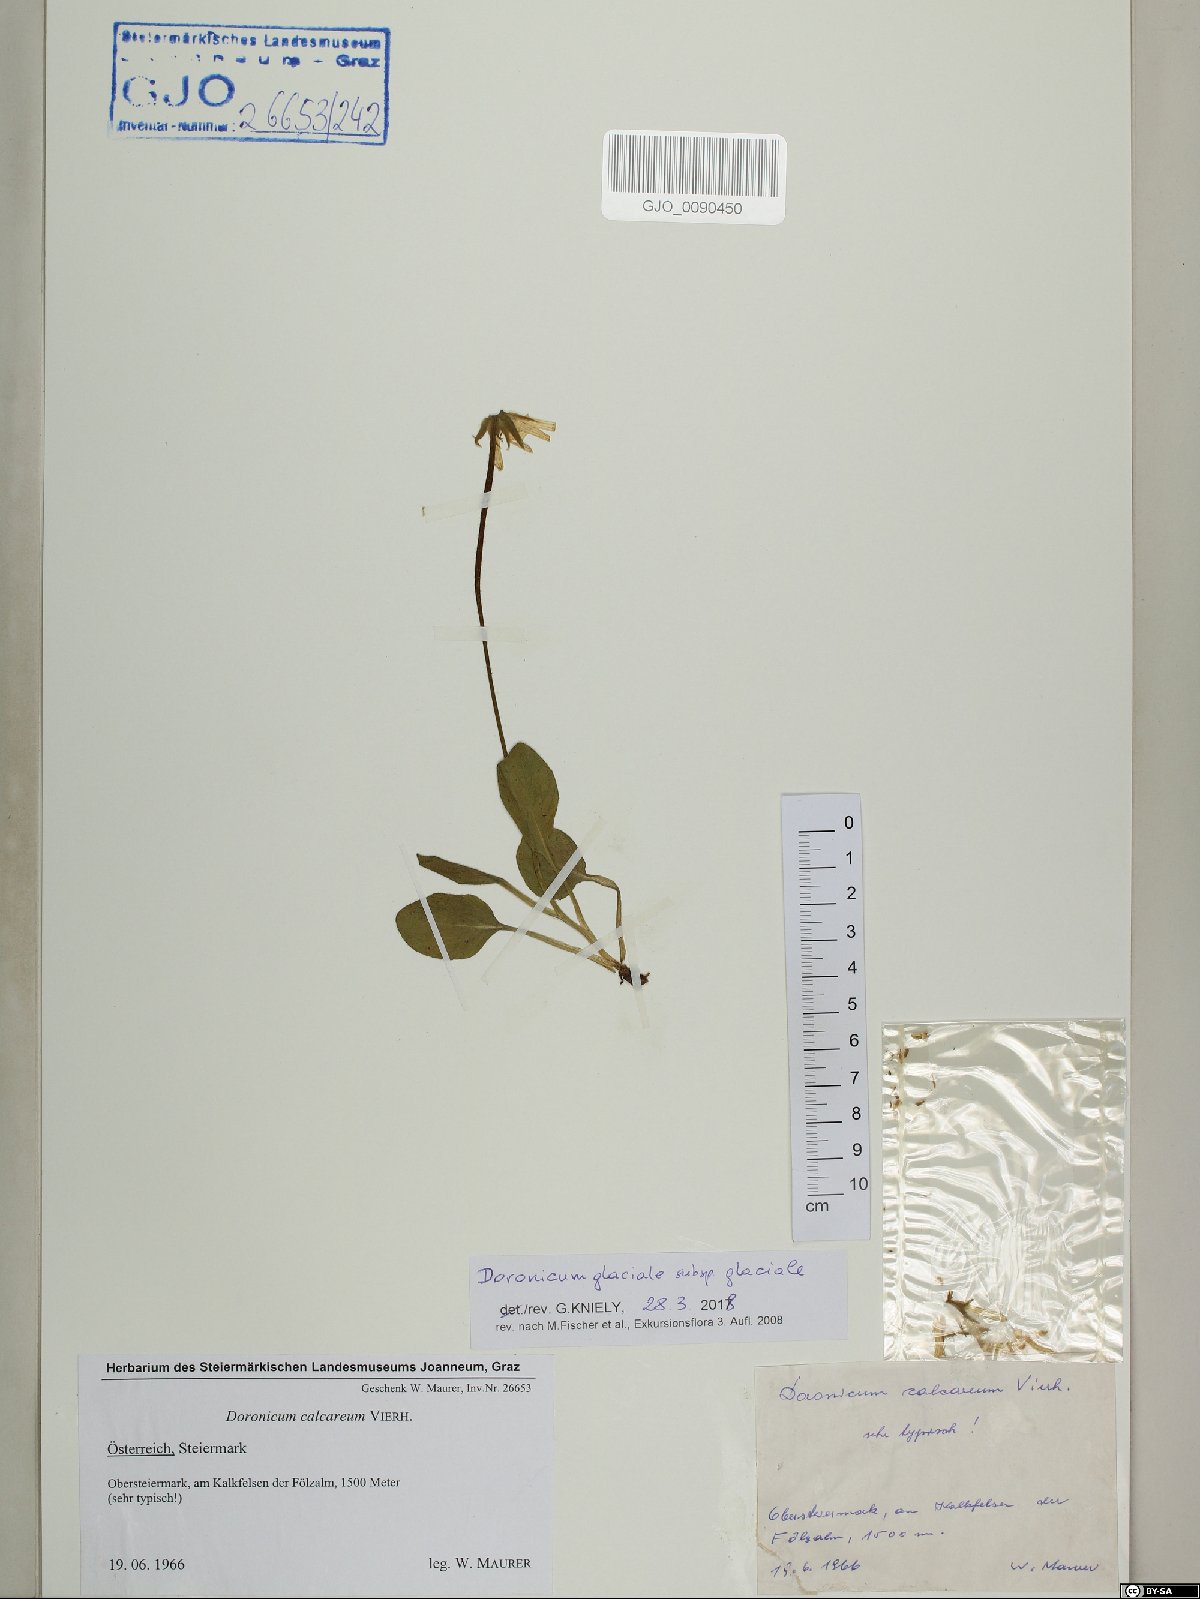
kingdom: Plantae
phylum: Tracheophyta
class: Magnoliopsida
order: Asterales
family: Asteraceae
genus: Doronicum
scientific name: Doronicum glaciale
